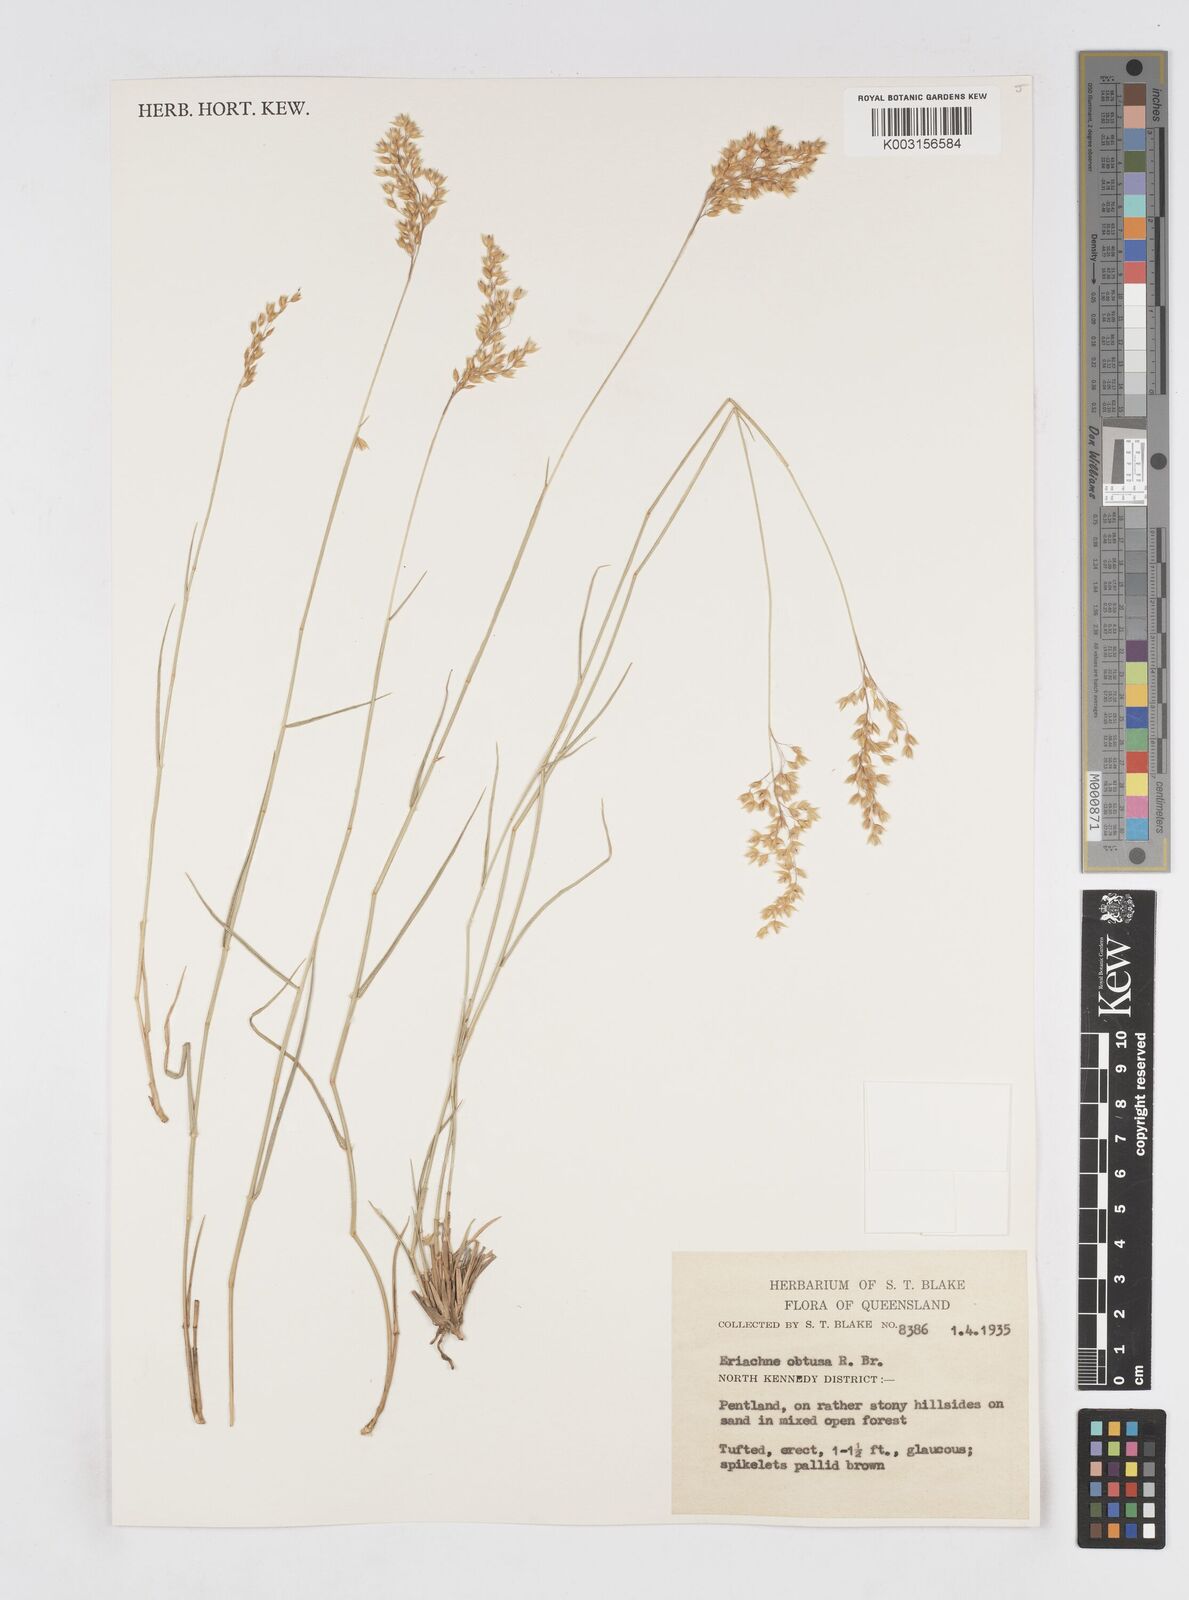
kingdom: Plantae
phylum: Tracheophyta
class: Liliopsida
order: Poales
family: Poaceae
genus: Eriachne
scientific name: Eriachne obtusa
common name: Northern wanderrie grass
